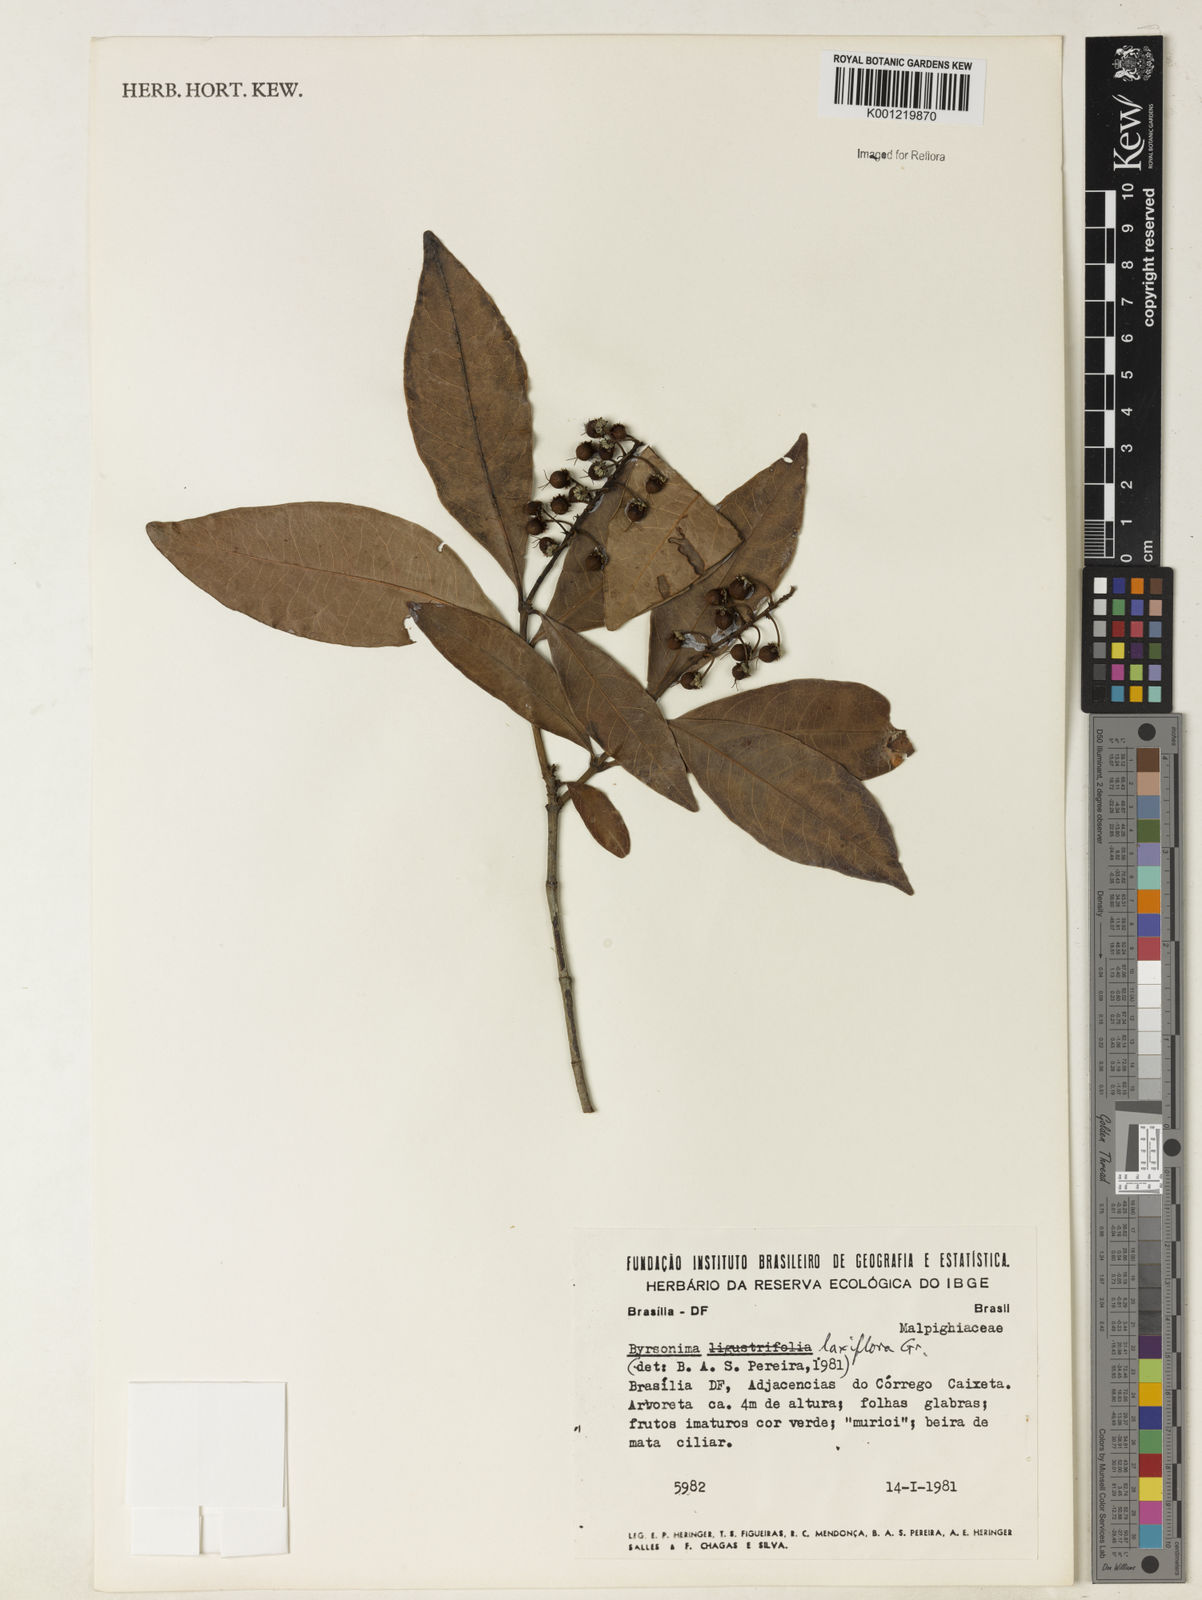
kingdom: Plantae
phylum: Tracheophyta
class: Magnoliopsida
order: Malpighiales
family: Malpighiaceae
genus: Byrsonima
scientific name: Byrsonima laxiflora
